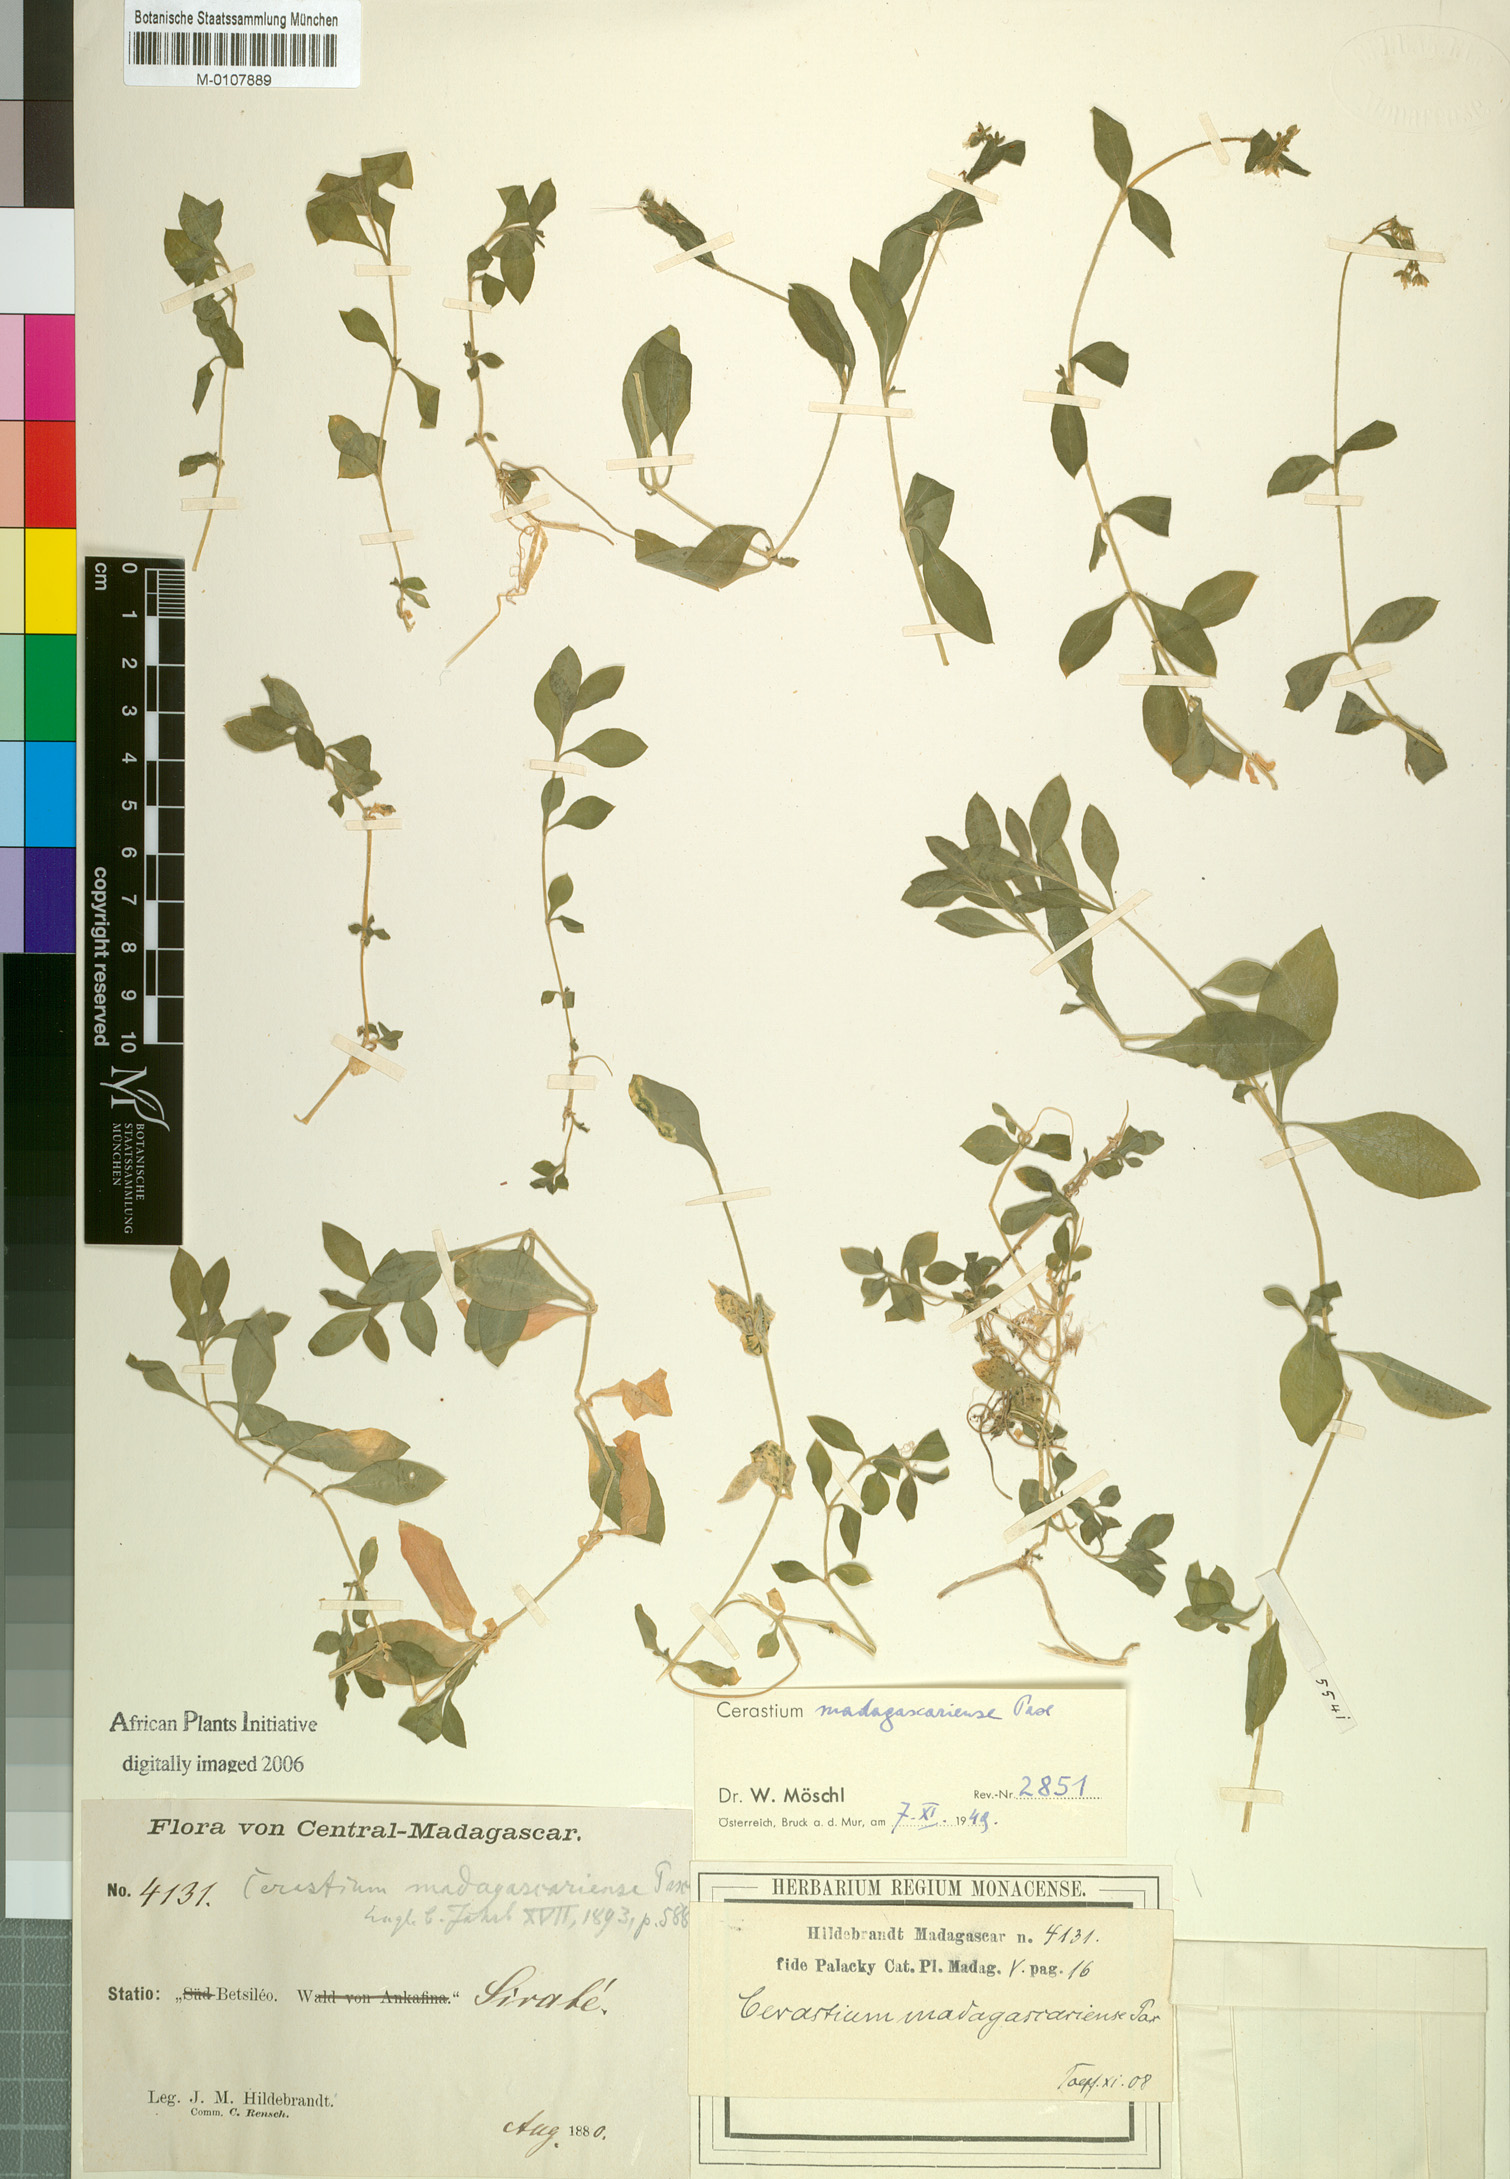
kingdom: Plantae
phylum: Tracheophyta
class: Magnoliopsida
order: Caryophyllales
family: Caryophyllaceae
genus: Cerastium
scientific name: Cerastium lanceolatum
